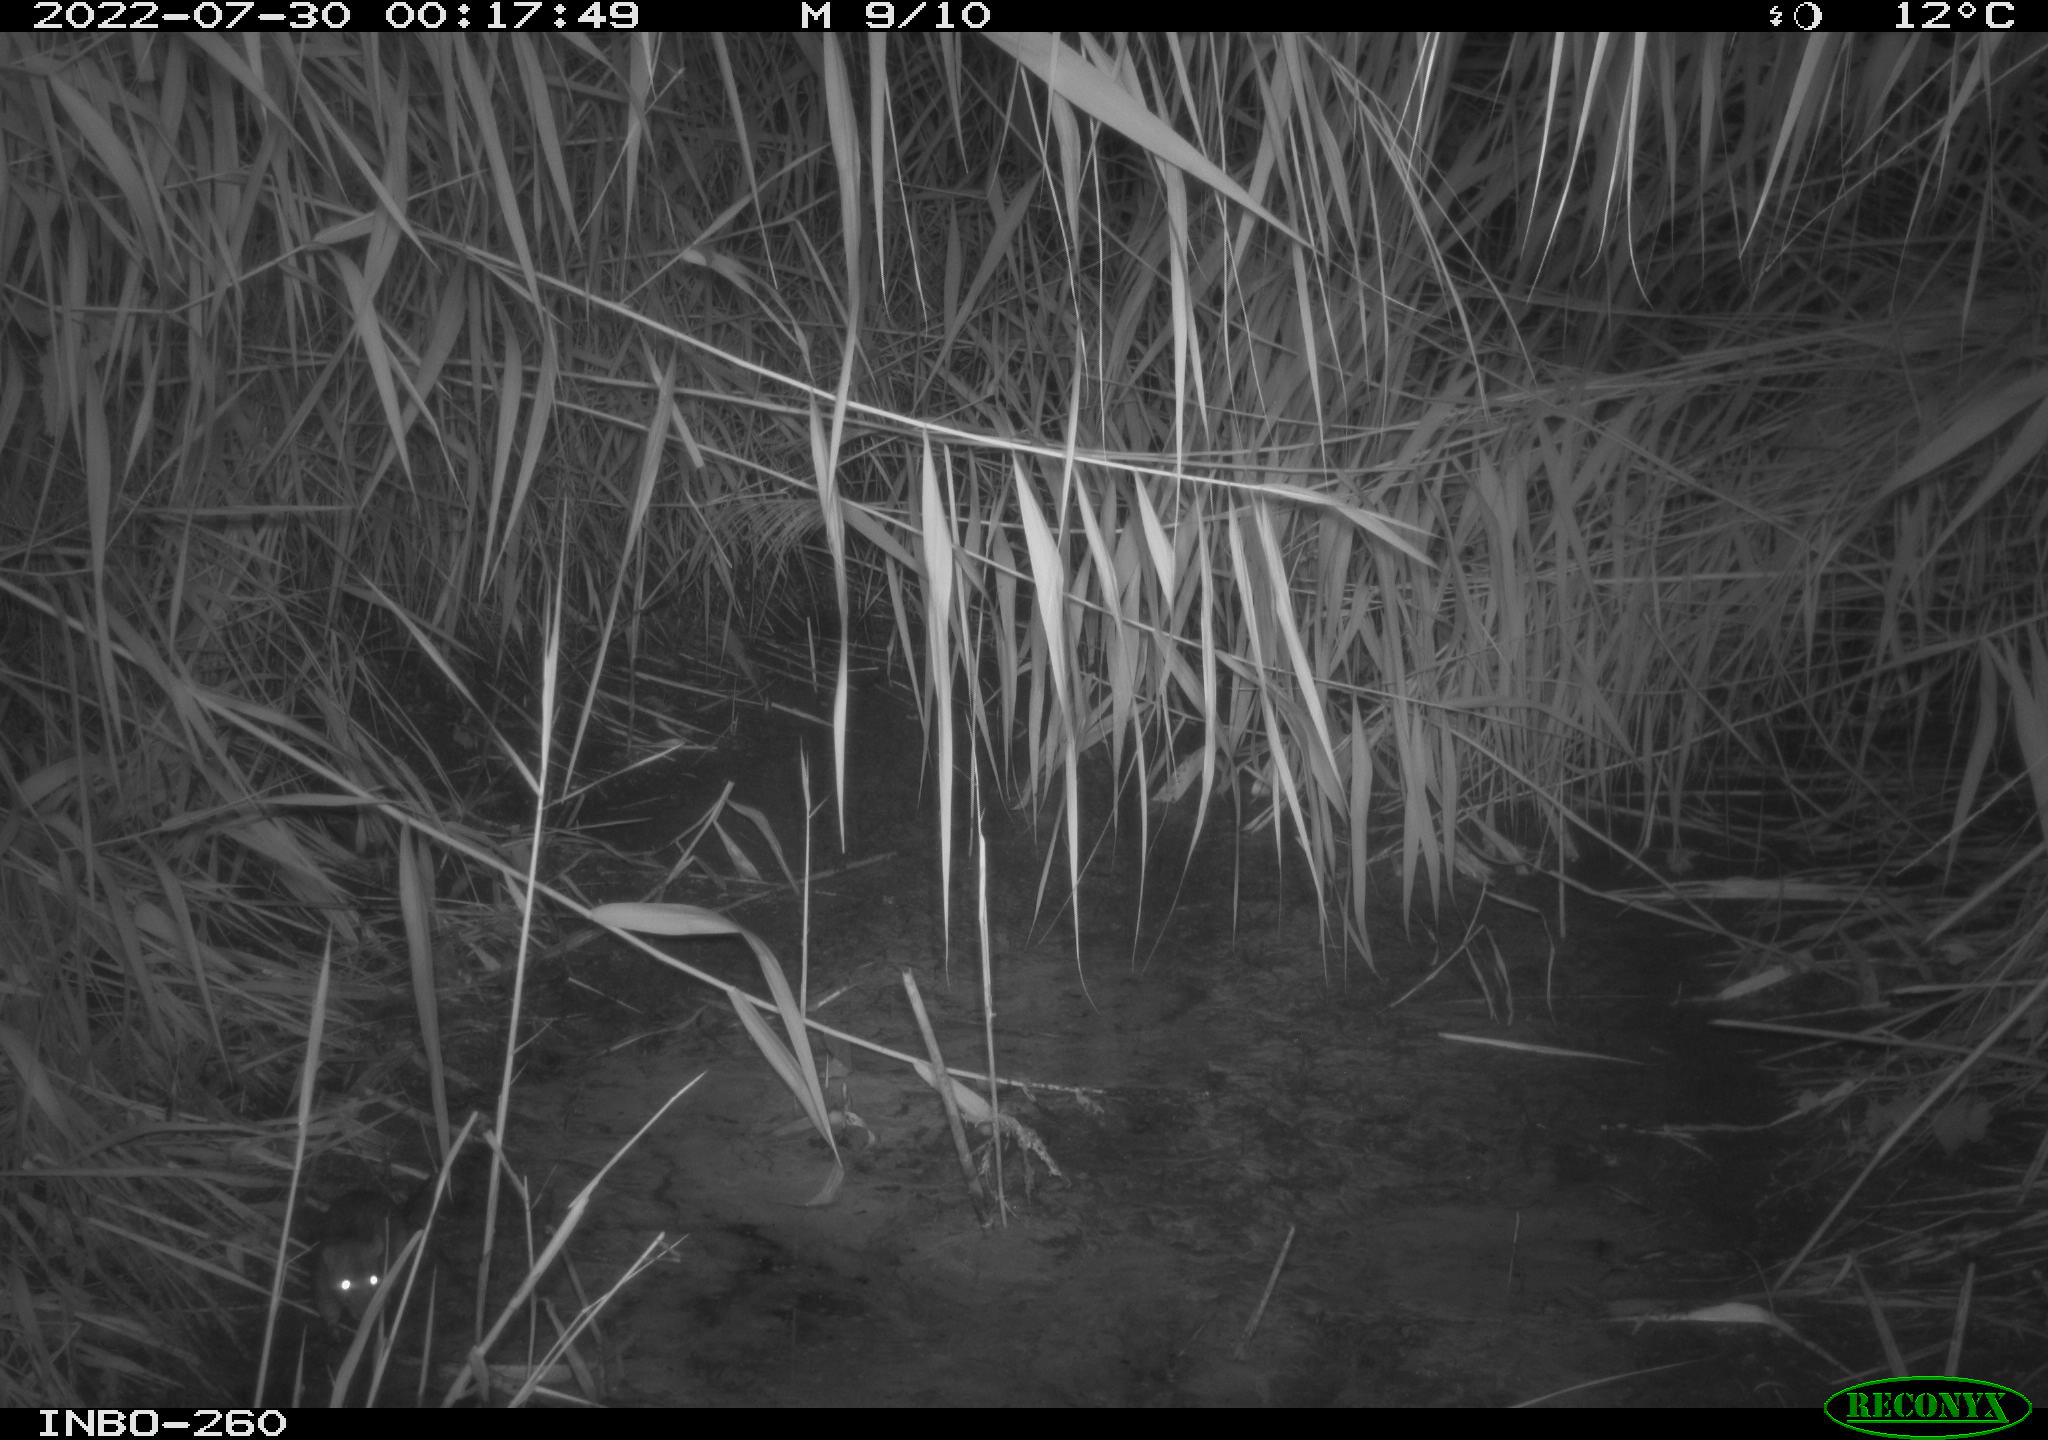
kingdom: Animalia
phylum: Chordata
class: Mammalia
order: Rodentia
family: Muridae
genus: Rattus
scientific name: Rattus norvegicus
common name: Brown rat
